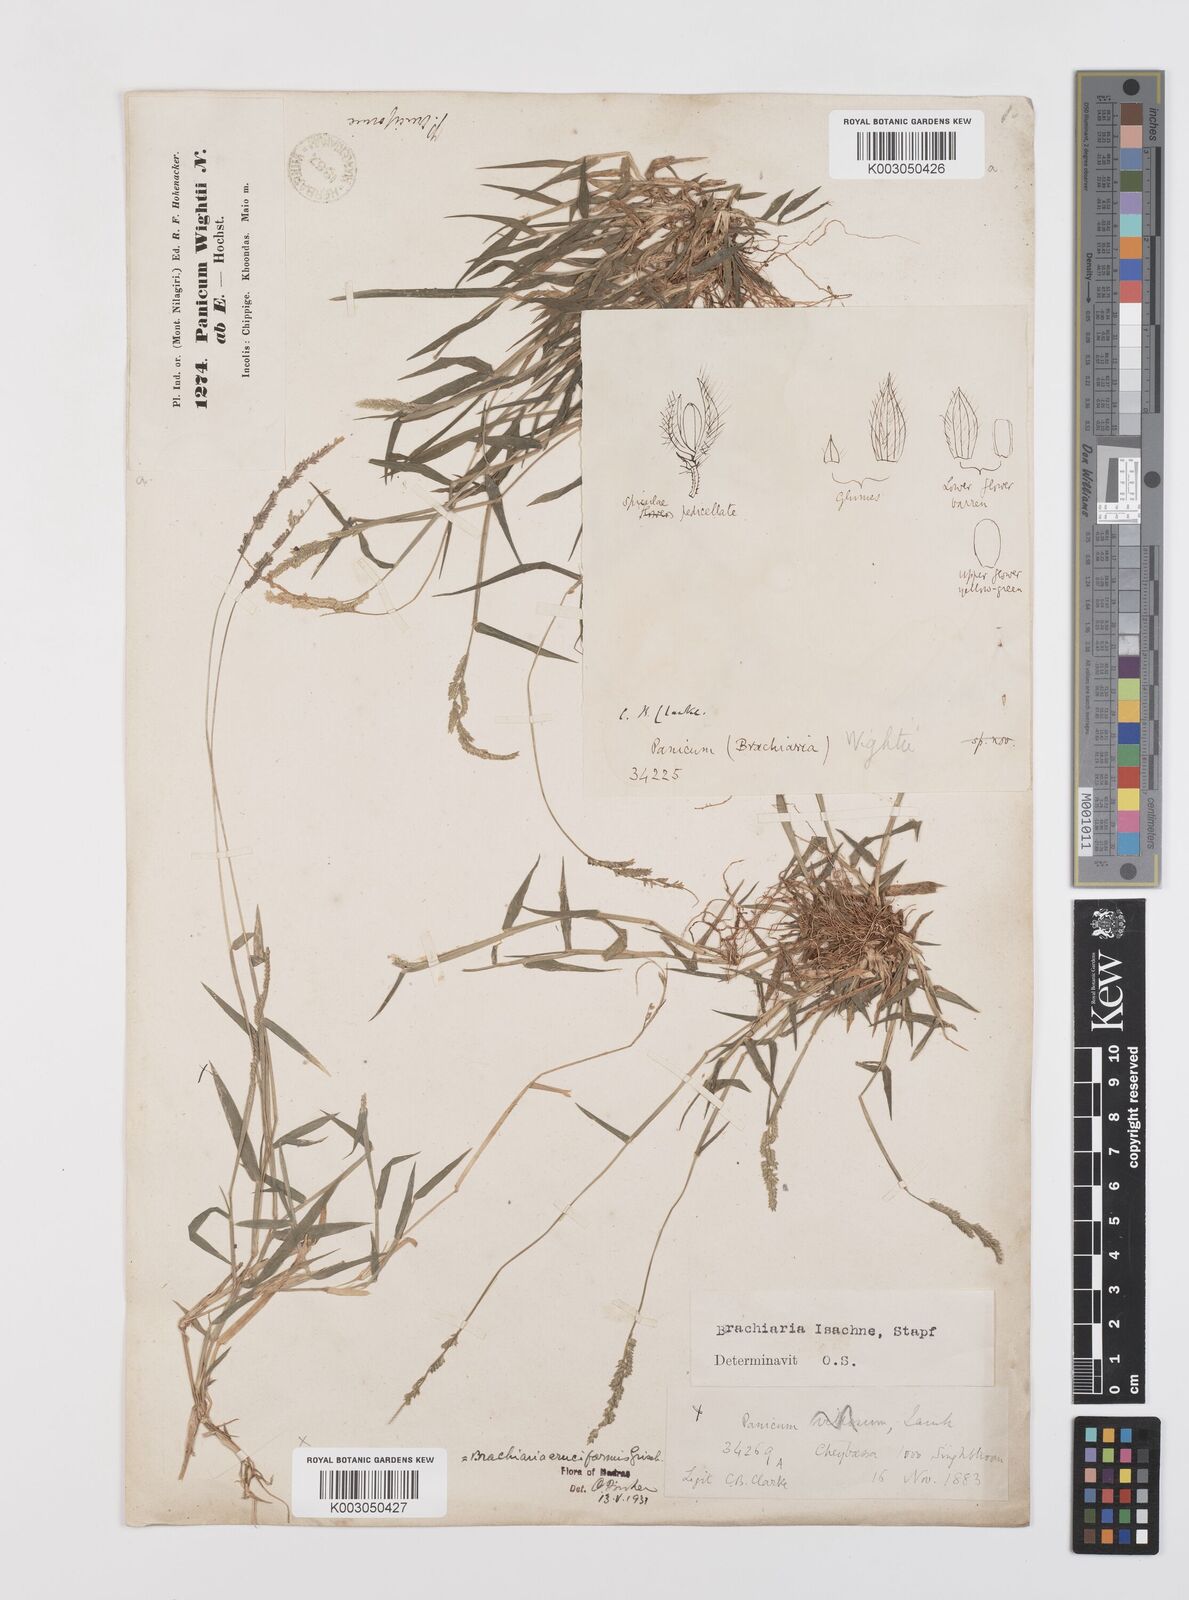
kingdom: Plantae
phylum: Tracheophyta
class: Liliopsida
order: Poales
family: Poaceae
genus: Moorochloa
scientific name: Moorochloa eruciformis
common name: Sweet signalgrass
